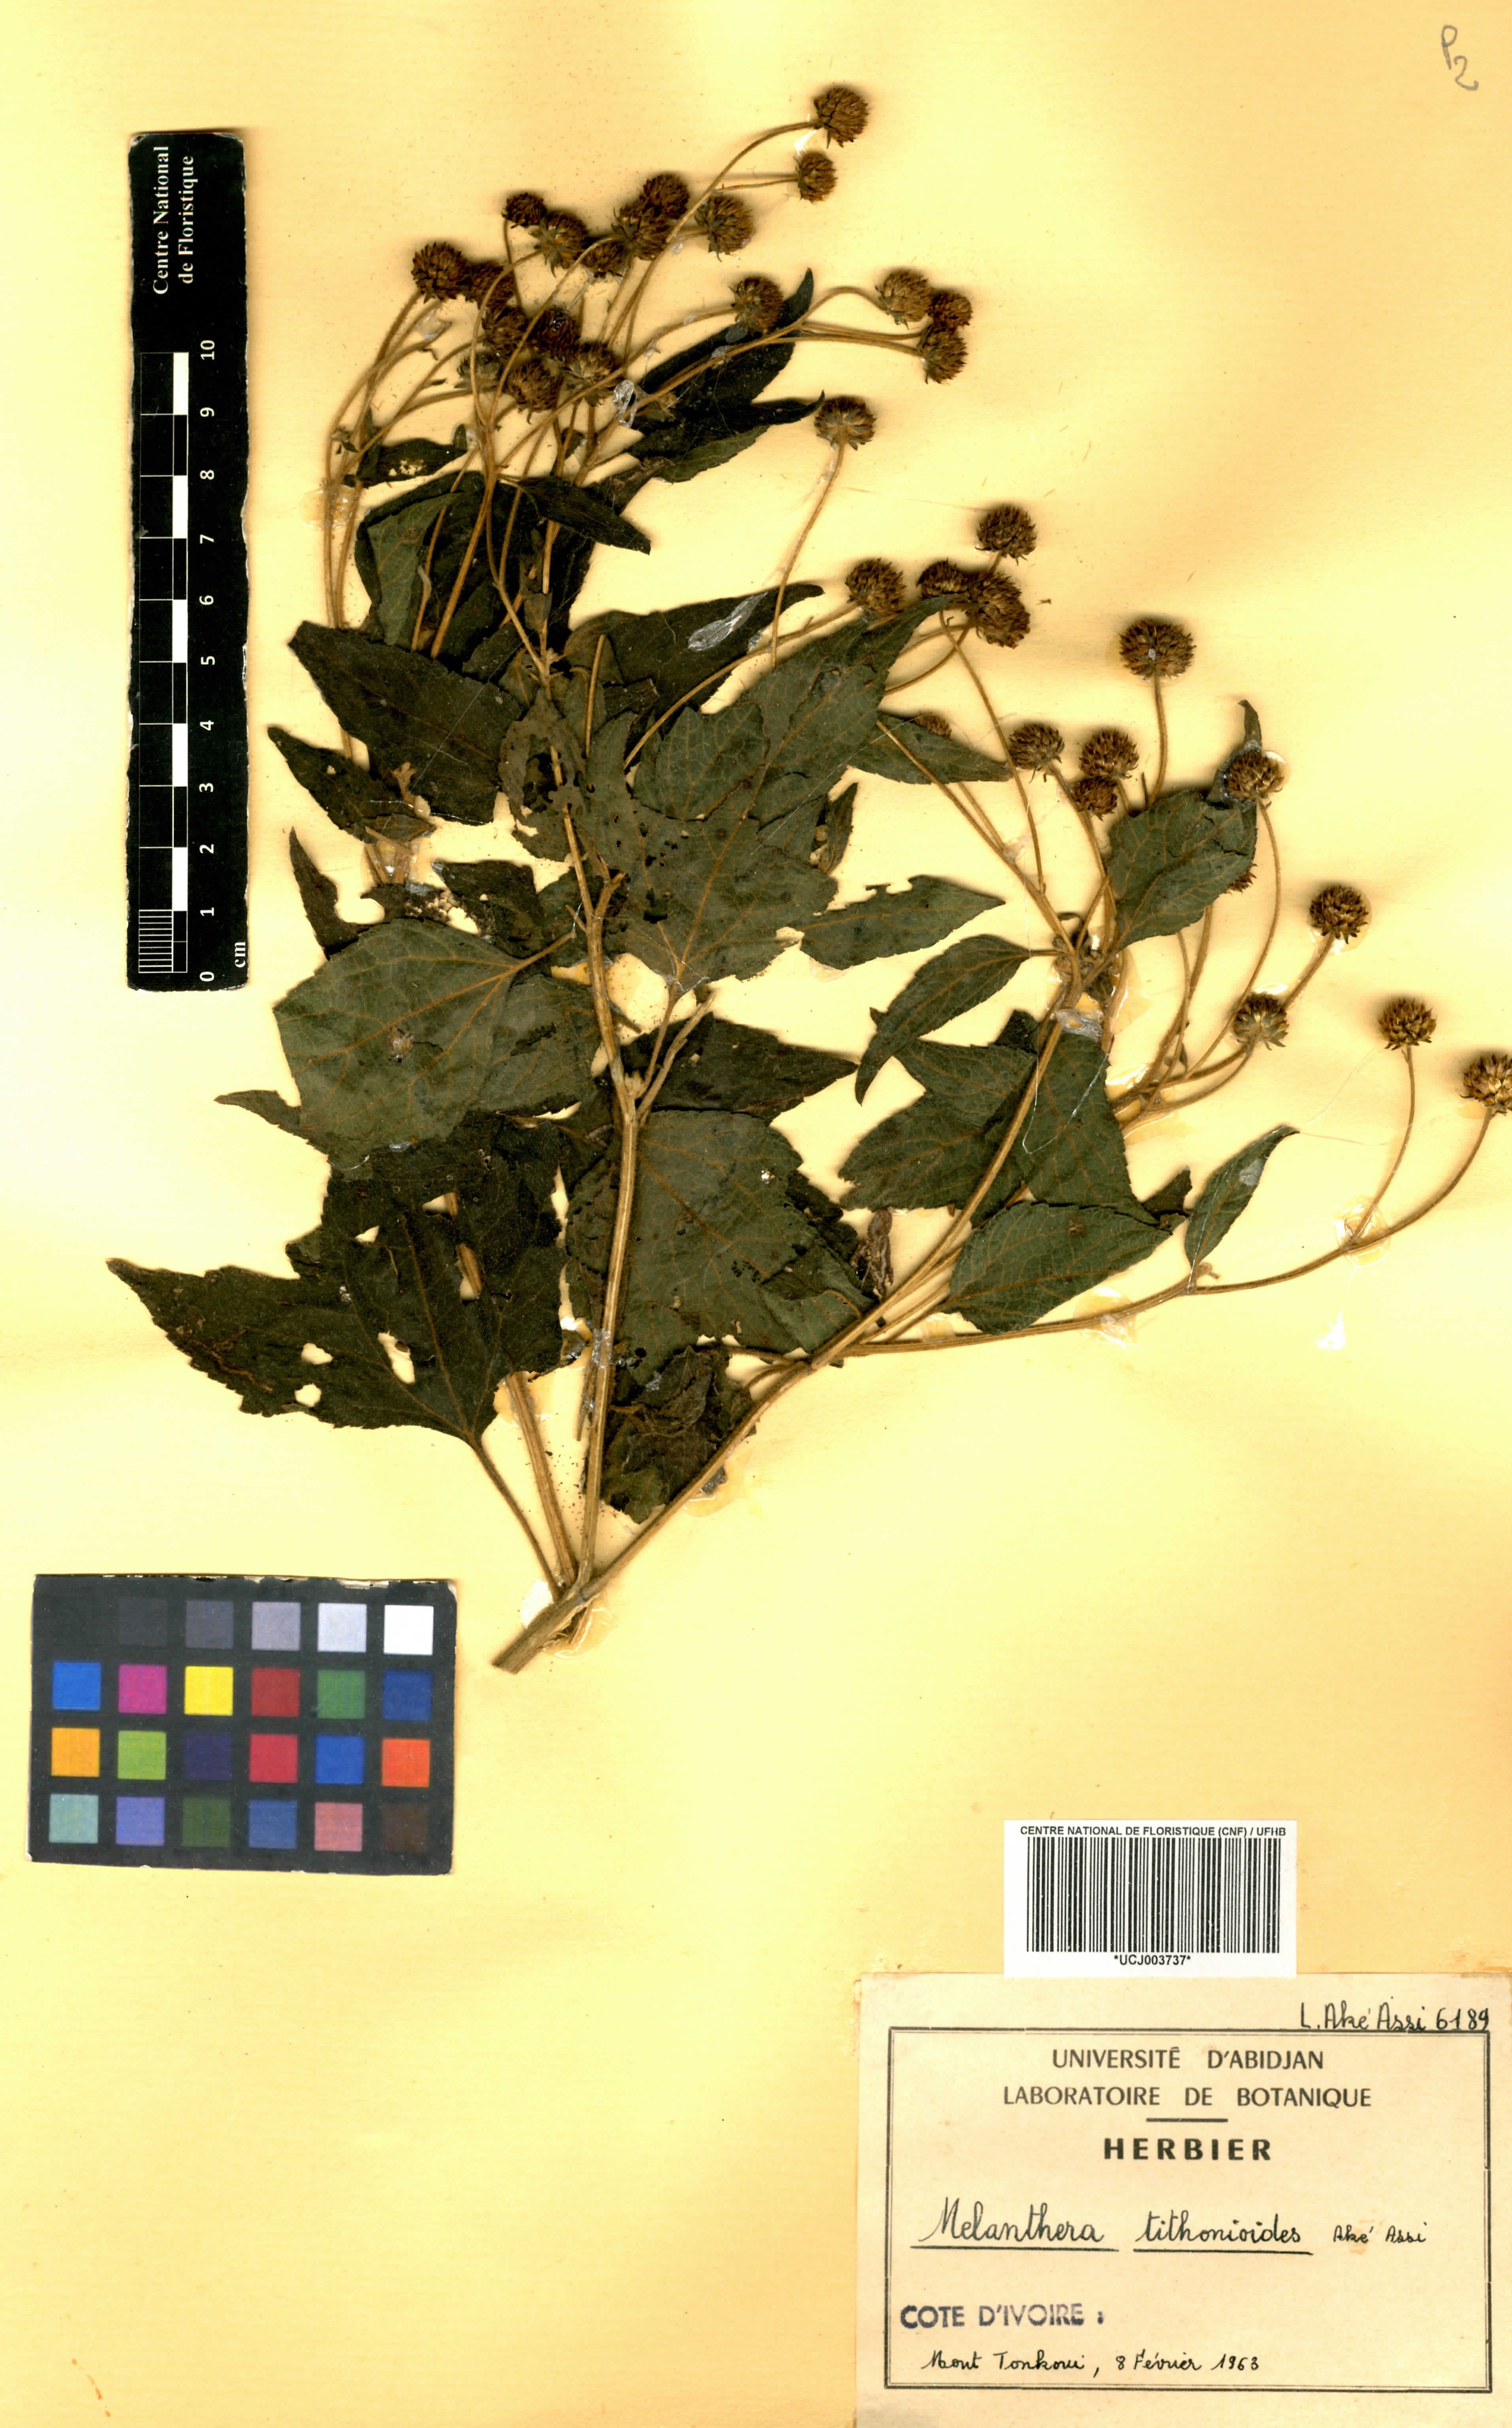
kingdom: Plantae
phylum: Tracheophyta
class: Magnoliopsida
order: Asterales
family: Asteraceae
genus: Lipotriche
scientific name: Lipotriche tithonioides
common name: Simandou daisy
